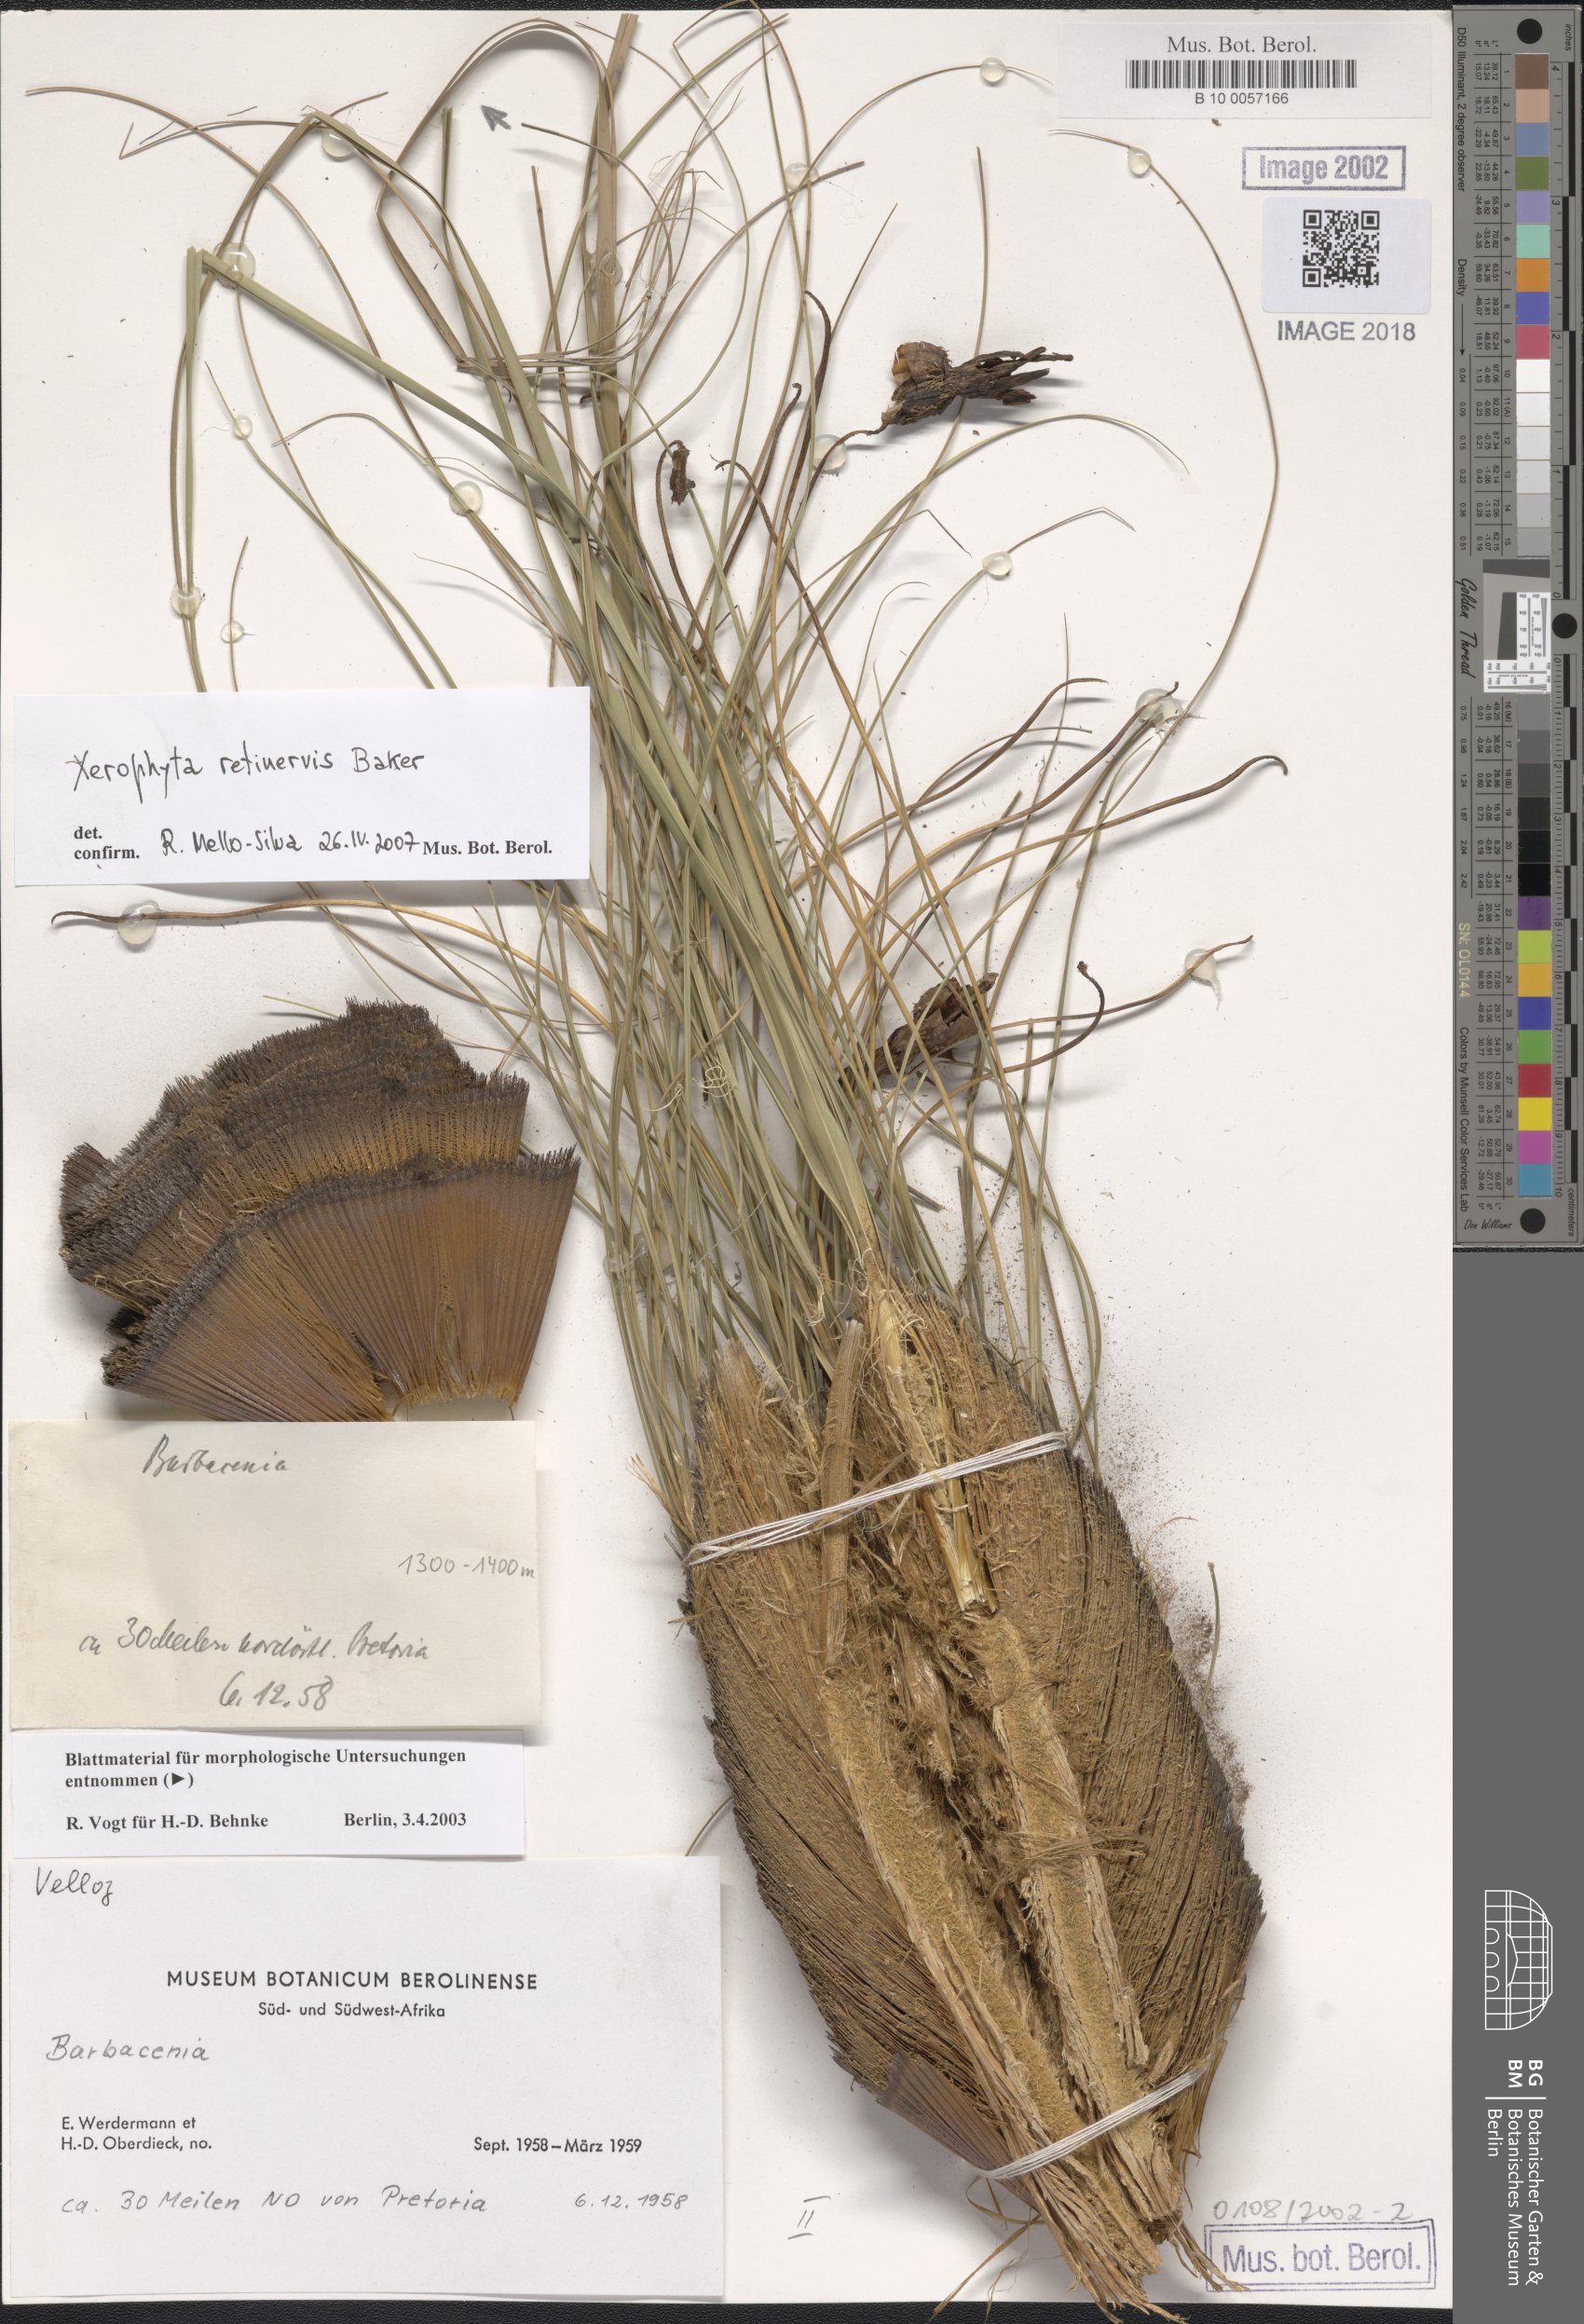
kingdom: Plantae
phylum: Tracheophyta
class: Liliopsida
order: Pandanales
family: Velloziaceae
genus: Barbacenia
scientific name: Barbacenia
